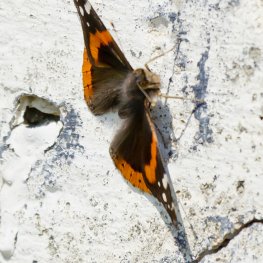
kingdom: Animalia
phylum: Arthropoda
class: Insecta
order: Lepidoptera
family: Nymphalidae
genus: Vanessa
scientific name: Vanessa atalanta
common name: Red Admiral
